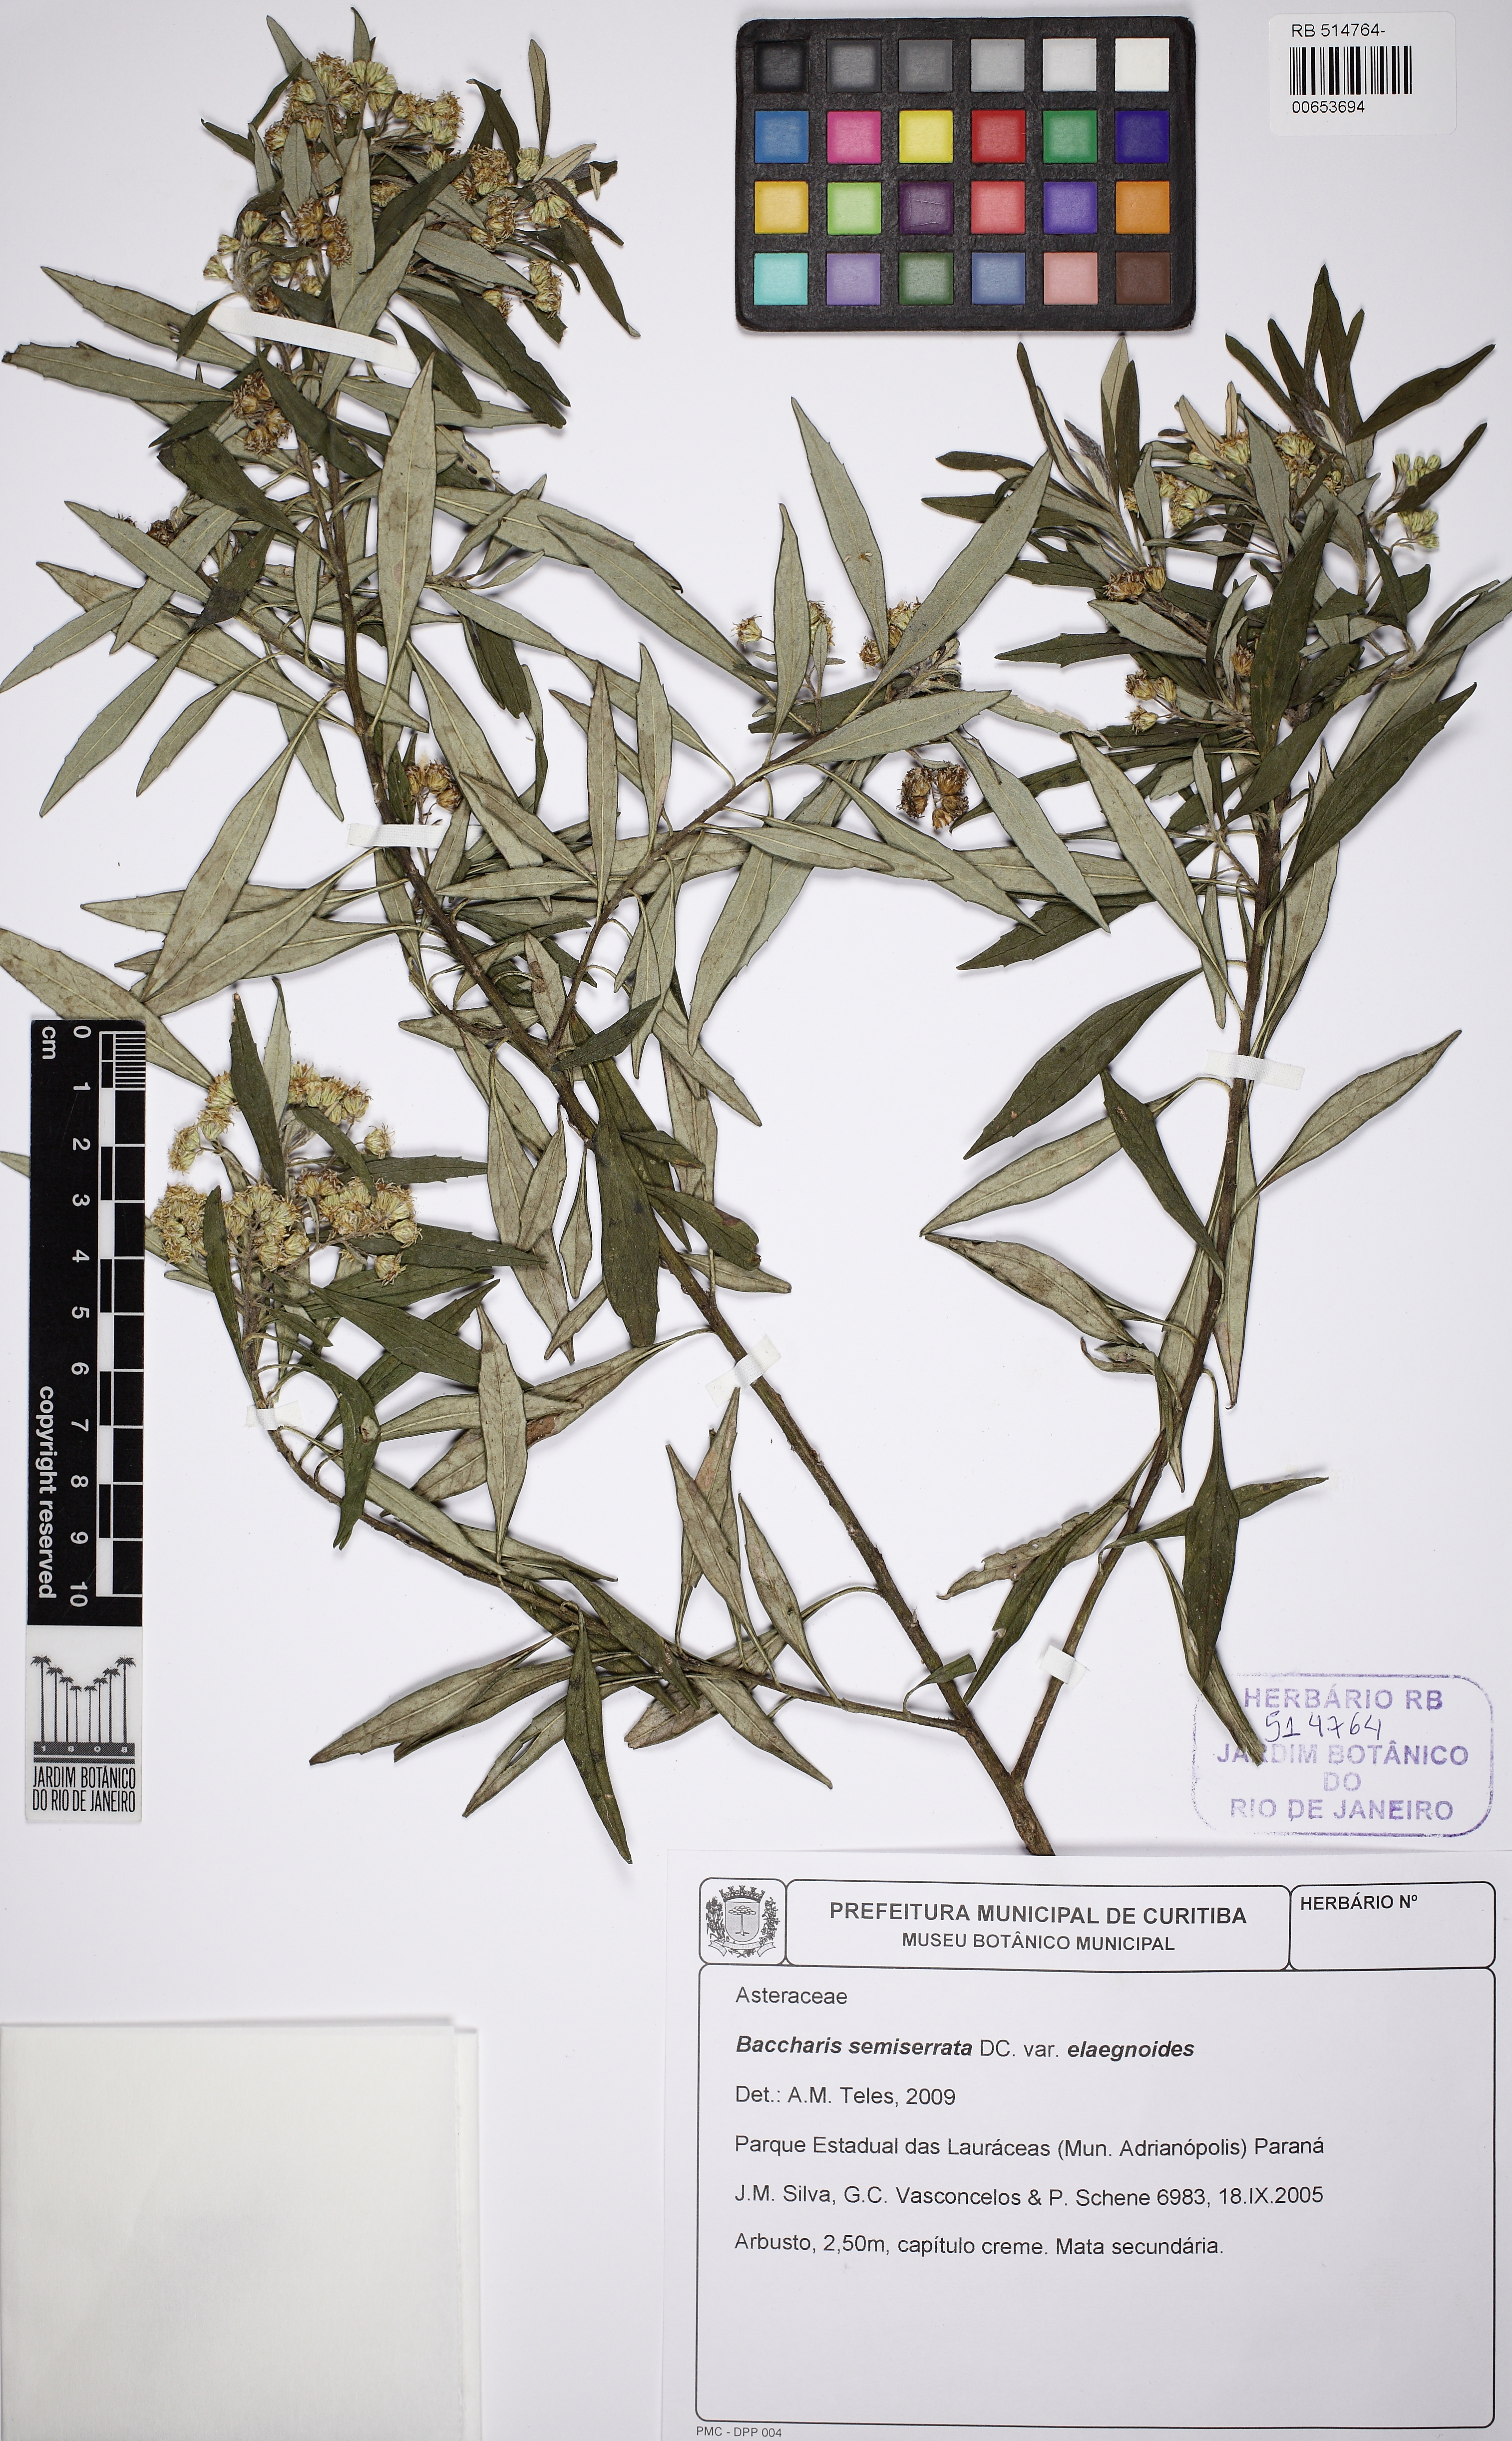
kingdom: Plantae
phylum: Tracheophyta
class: Magnoliopsida
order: Asterales
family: Asteraceae
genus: Baccharis
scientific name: Baccharis elaegnoides
